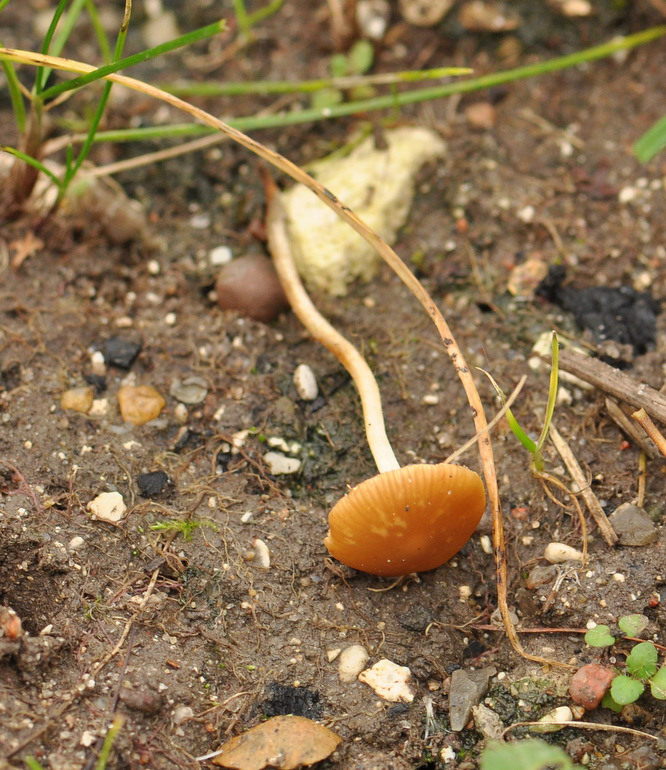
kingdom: Fungi
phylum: Basidiomycota
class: Agaricomycetes
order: Agaricales
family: Bolbitiaceae
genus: Conocybe
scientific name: Conocybe nemoralis
